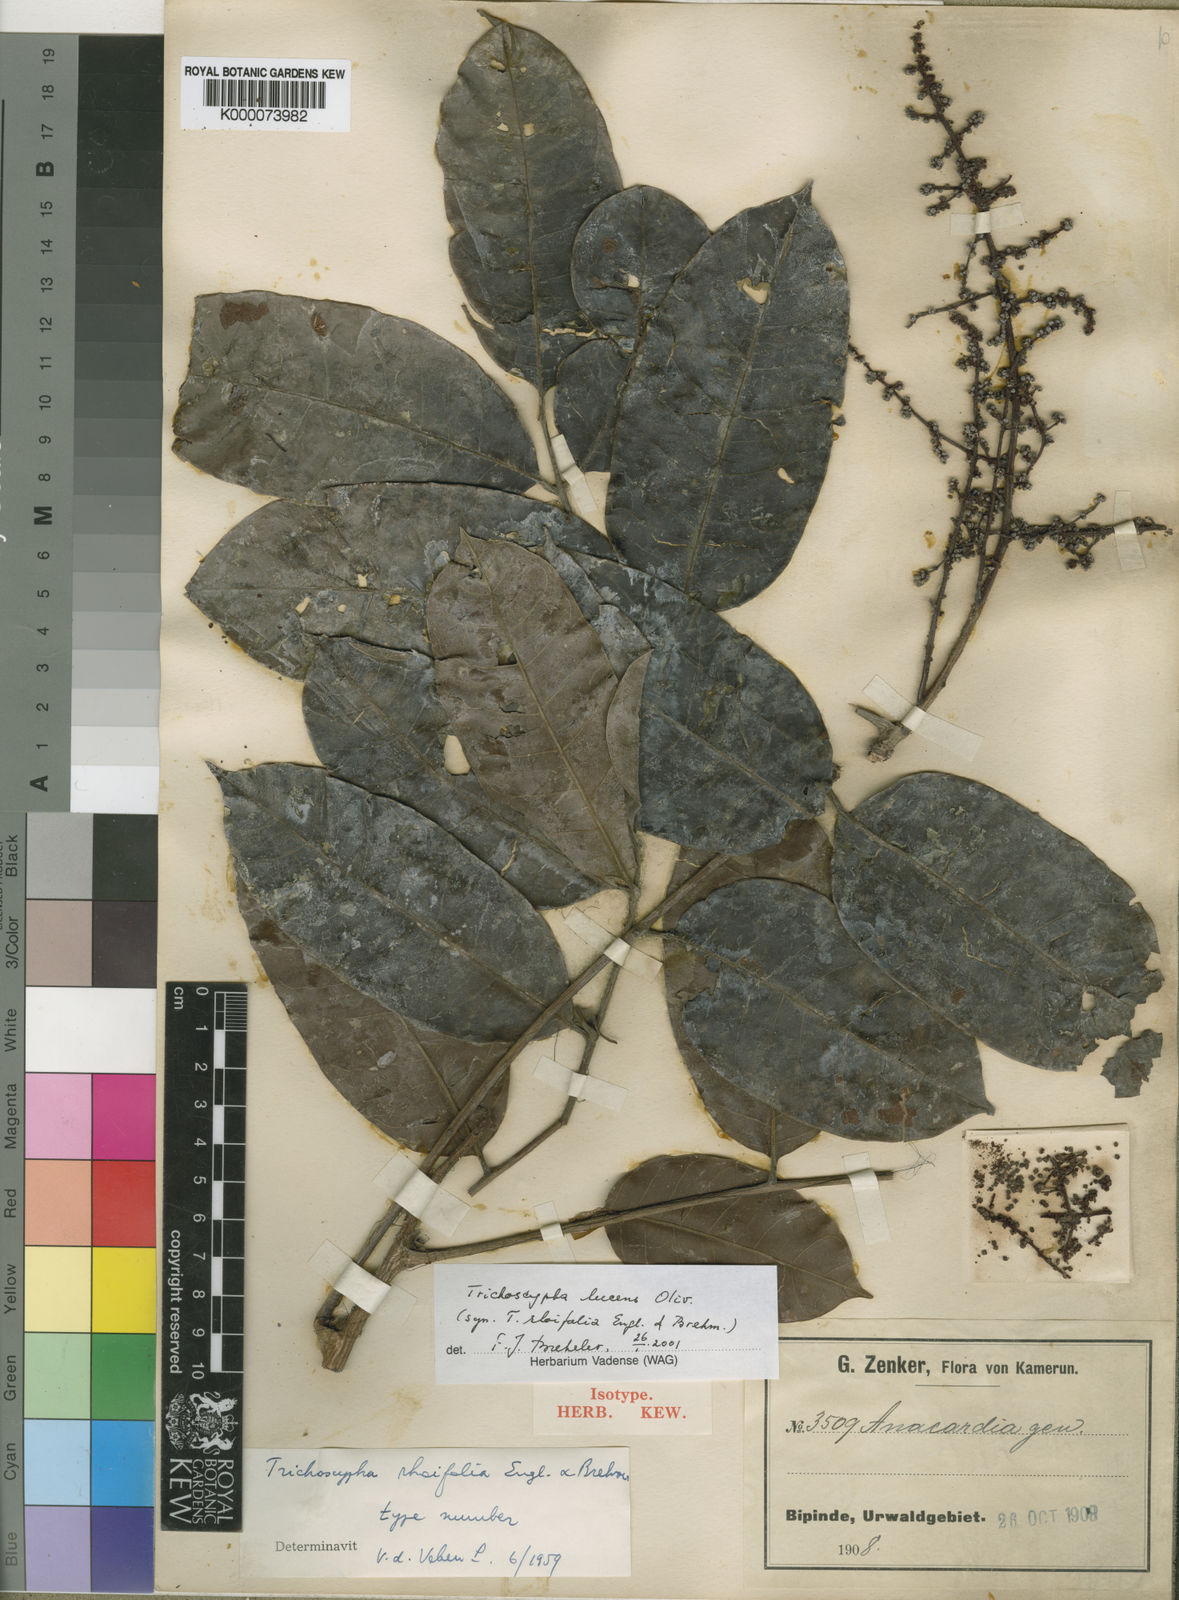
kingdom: Plantae
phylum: Tracheophyta
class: Magnoliopsida
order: Sapindales
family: Anacardiaceae
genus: Trichoscypha
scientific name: Trichoscypha lucens
